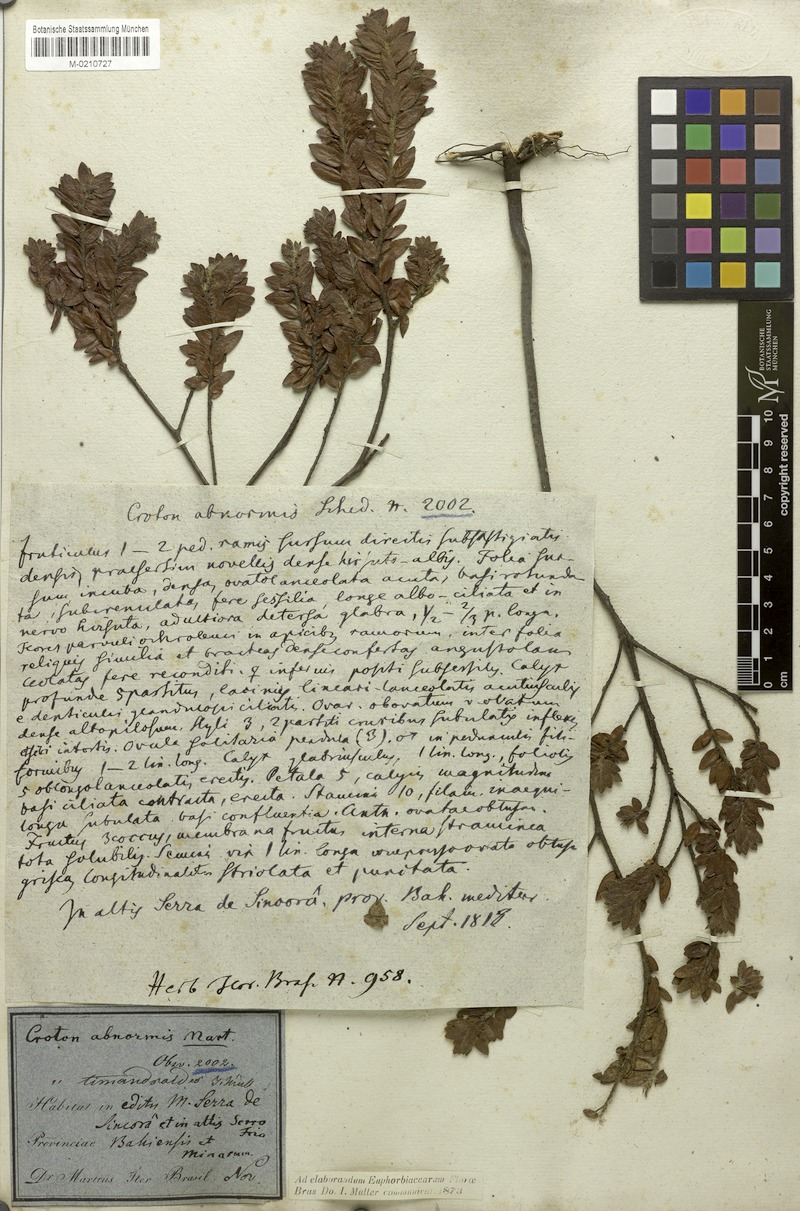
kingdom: Plantae
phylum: Tracheophyta
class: Magnoliopsida
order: Malpighiales
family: Euphorbiaceae
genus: Croton
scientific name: Croton timandroides
